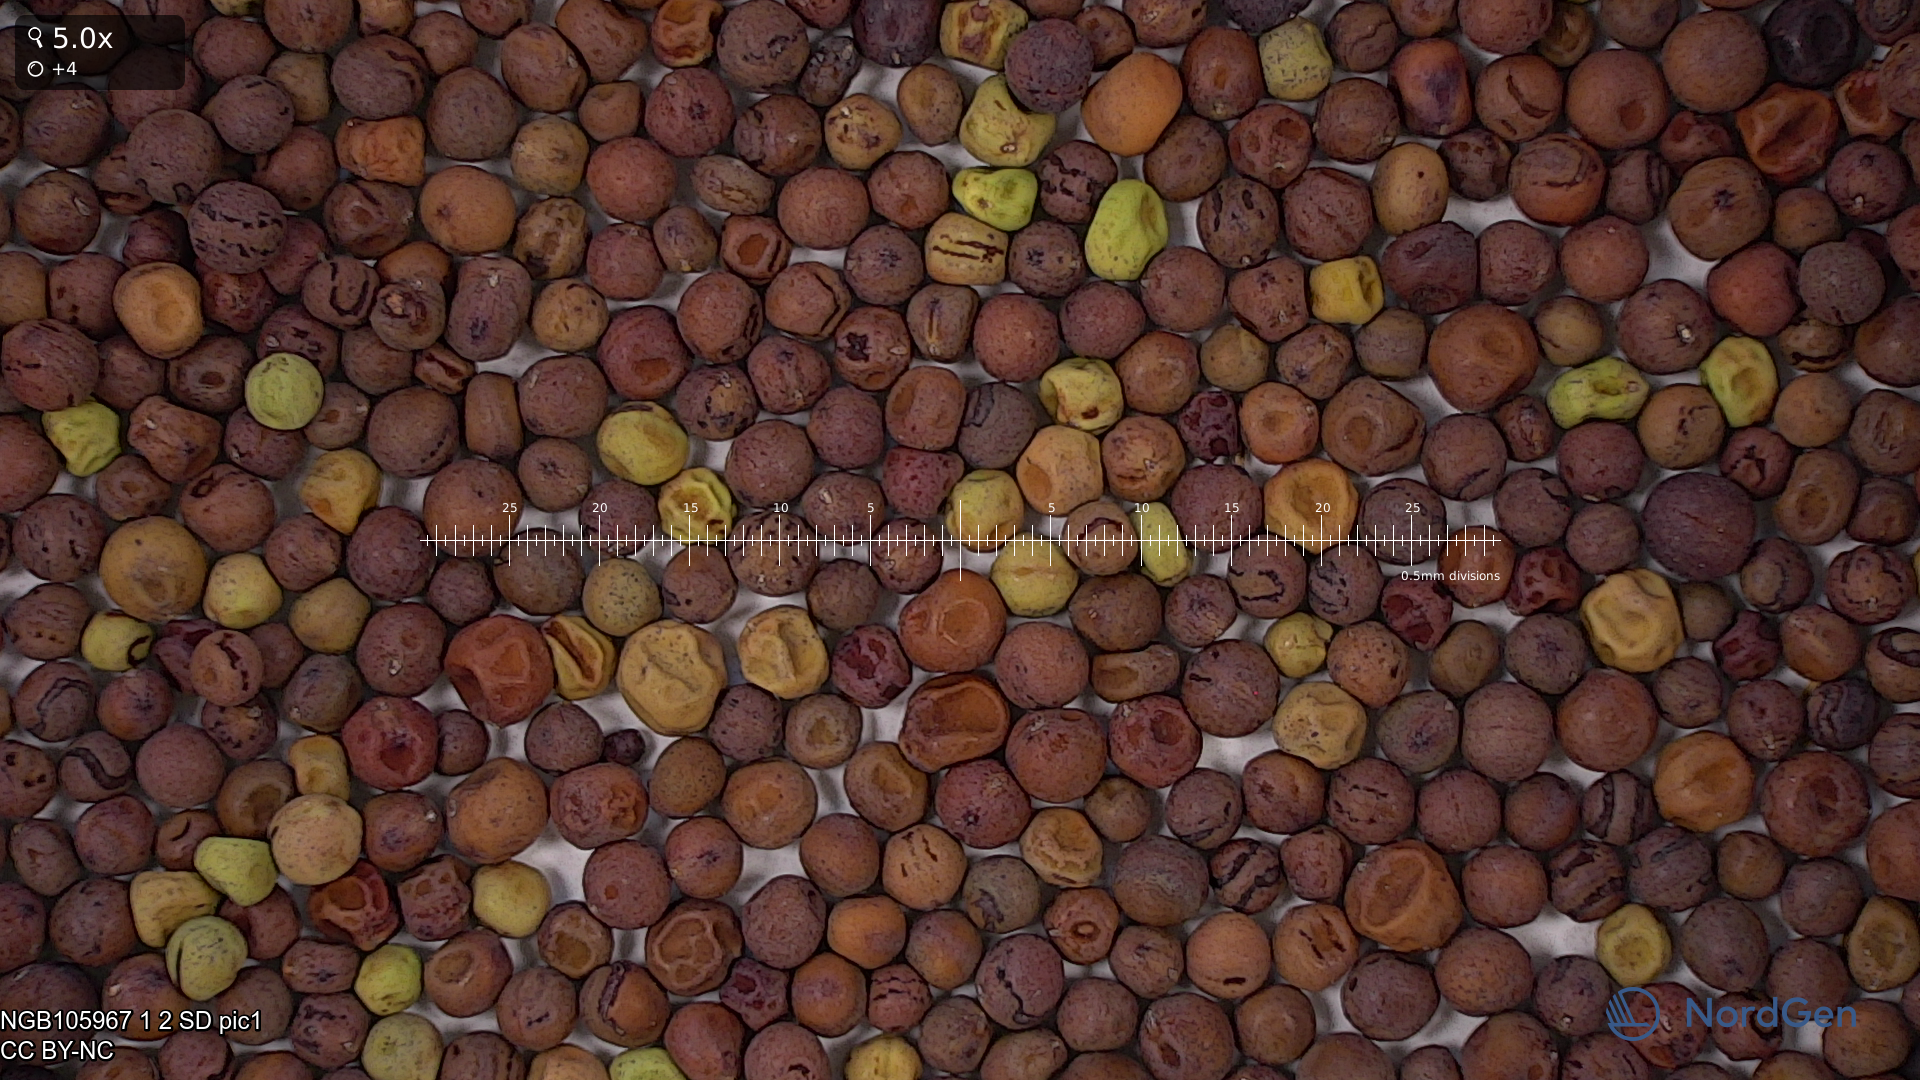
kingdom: Plantae
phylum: Tracheophyta
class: Magnoliopsida
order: Fabales
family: Fabaceae
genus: Lathyrus
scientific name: Lathyrus oleraceus
